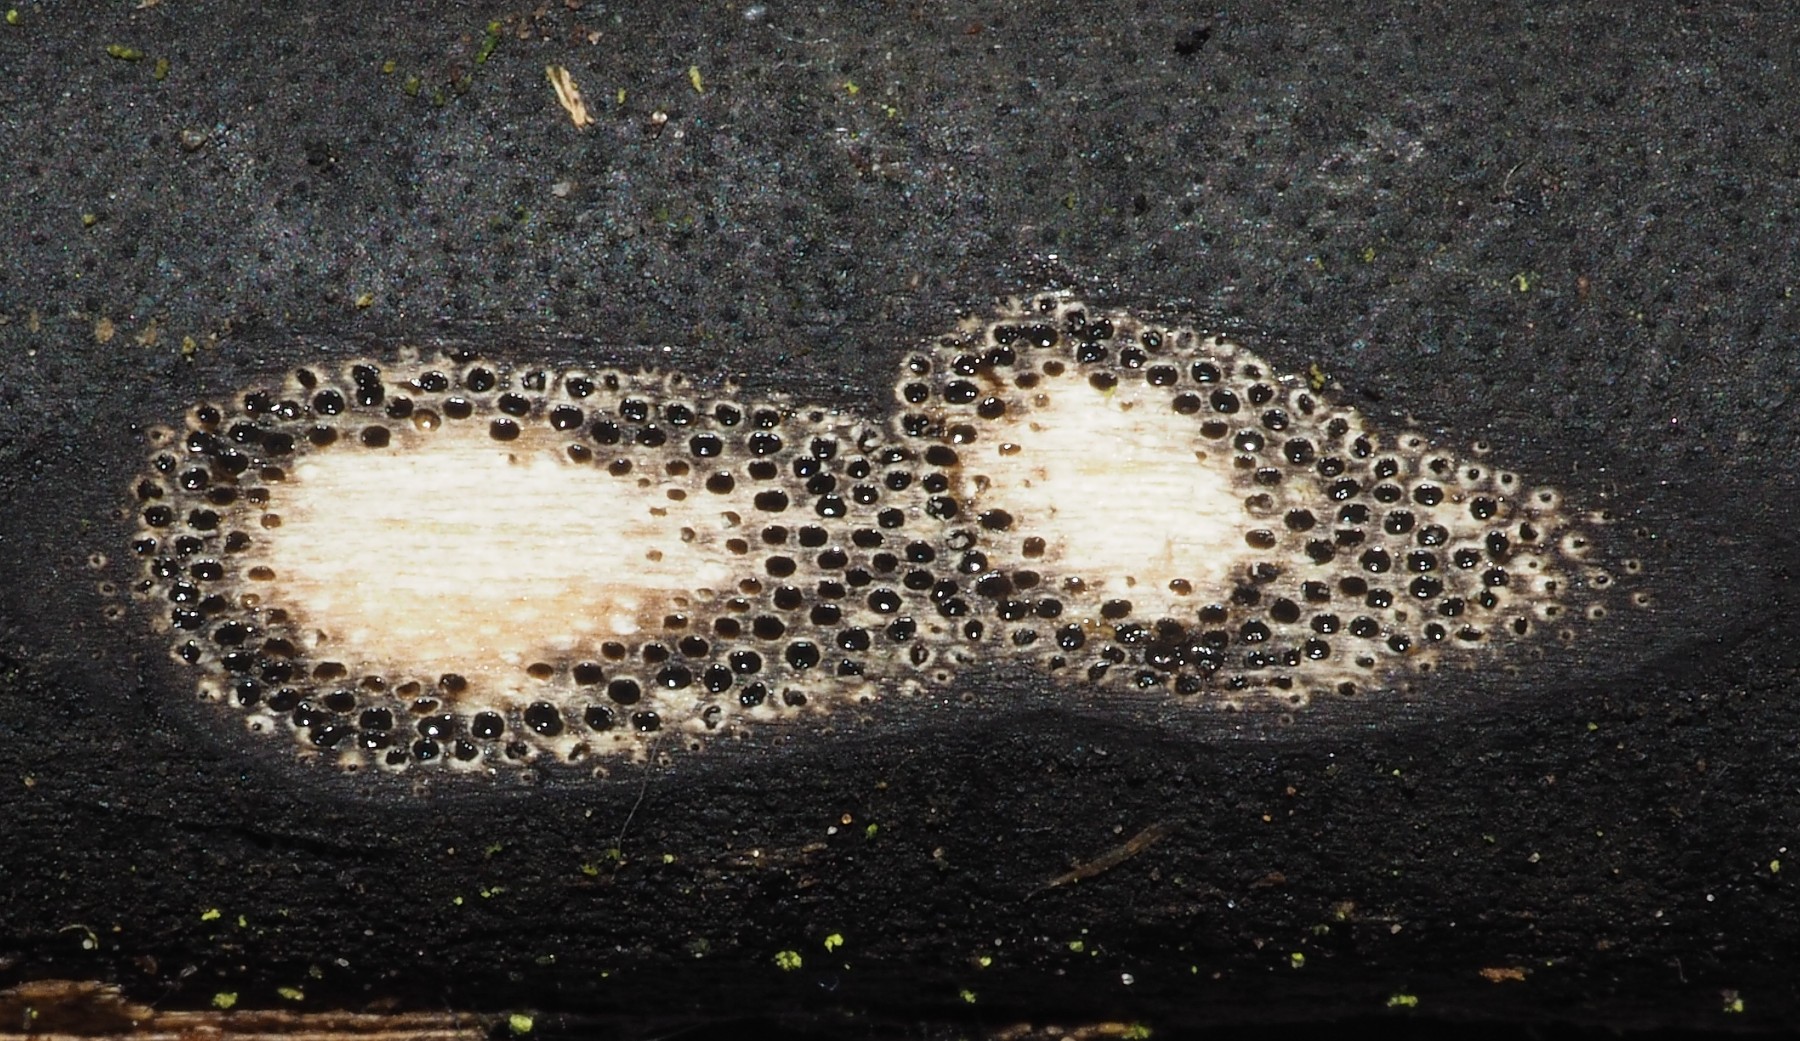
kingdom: Fungi
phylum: Ascomycota
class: Sordariomycetes
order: Xylariales
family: Diatrypaceae
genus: Eutypa
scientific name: Eutypa maura
